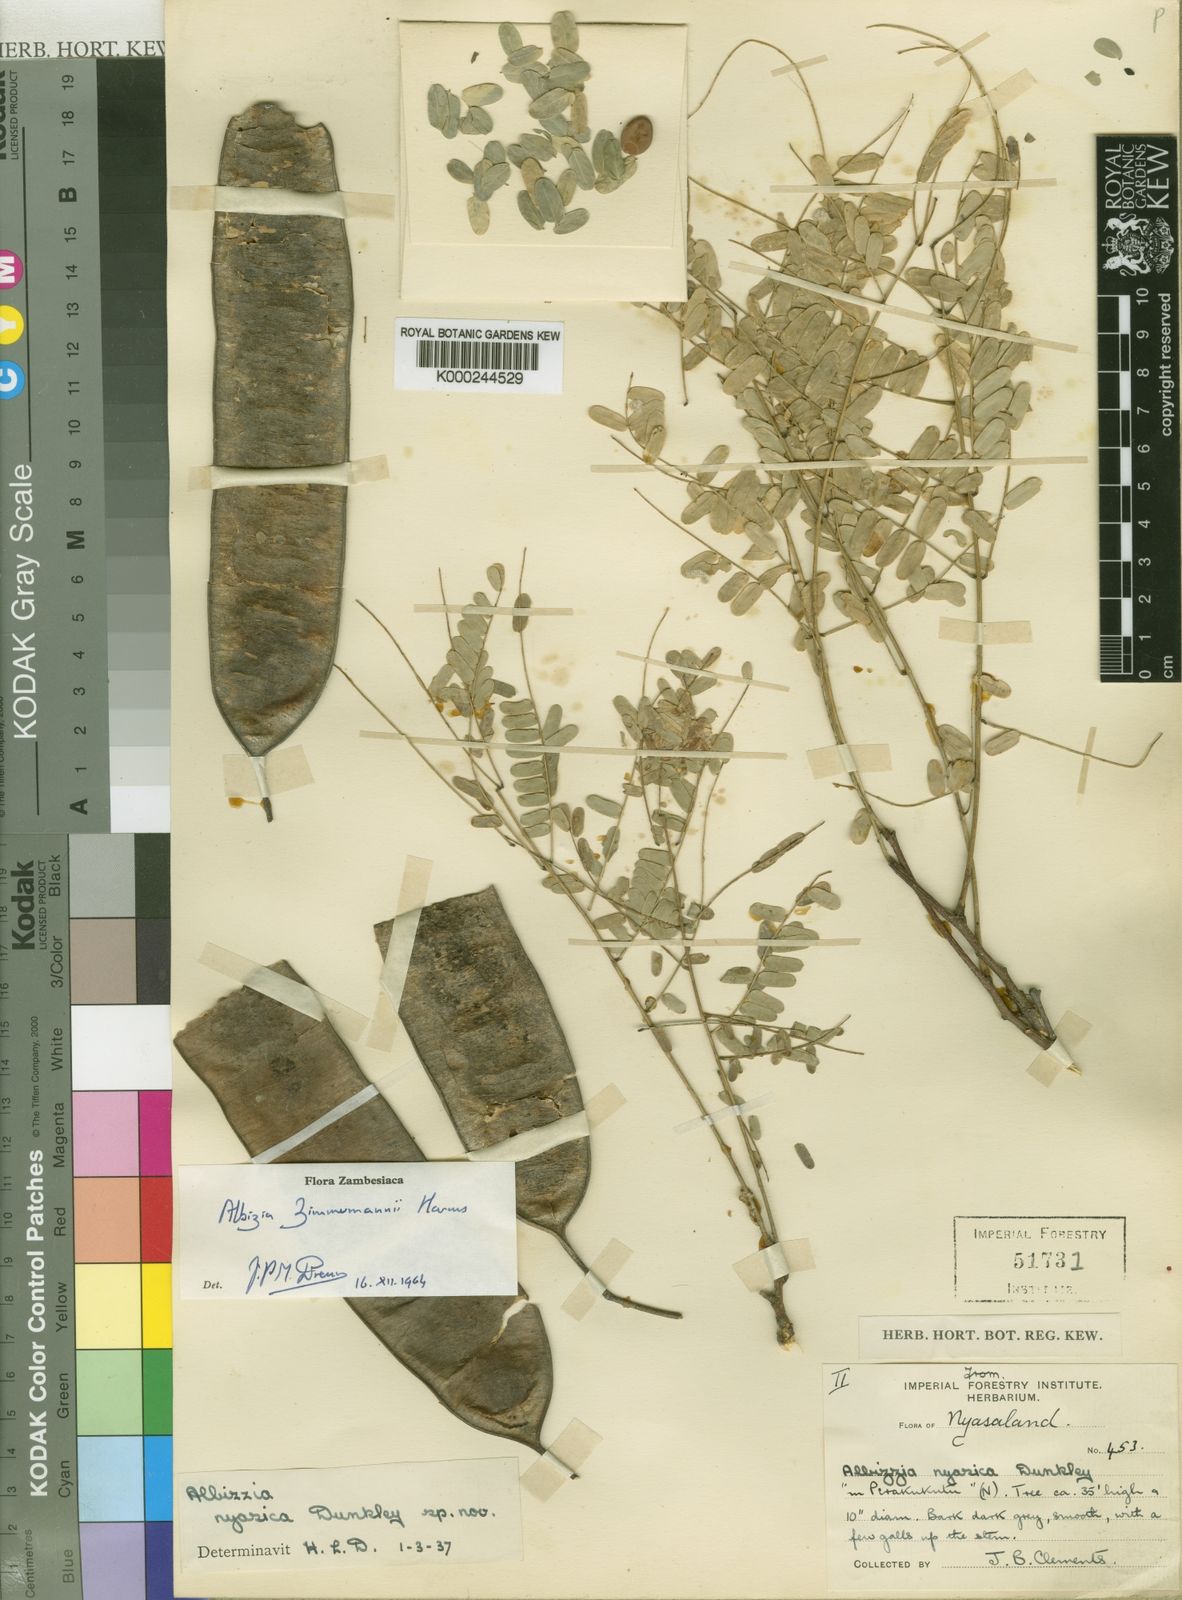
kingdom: Plantae
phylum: Tracheophyta
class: Magnoliopsida
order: Fabales
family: Fabaceae
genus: Albizia
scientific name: Albizia zimmermannii
